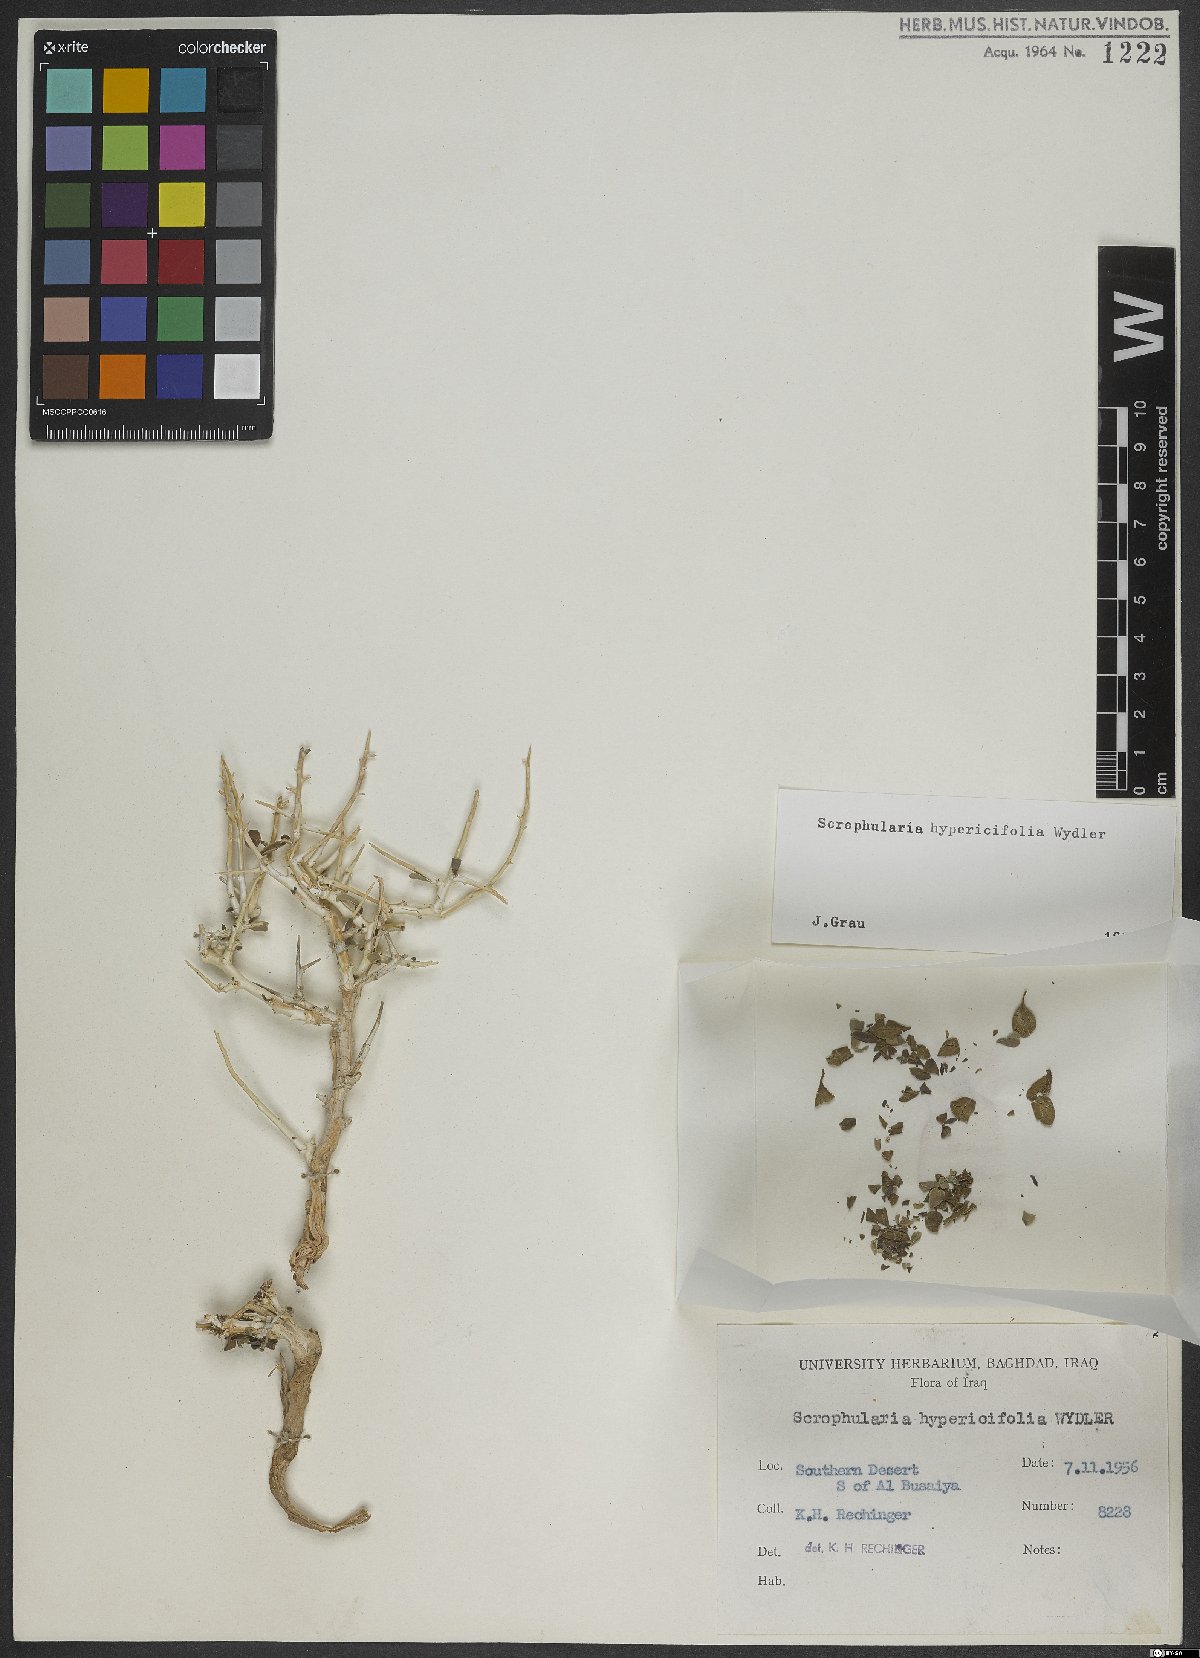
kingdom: Plantae
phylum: Tracheophyta
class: Magnoliopsida
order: Lamiales
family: Scrophulariaceae
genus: Scrophularia
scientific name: Scrophularia hypericifolia
